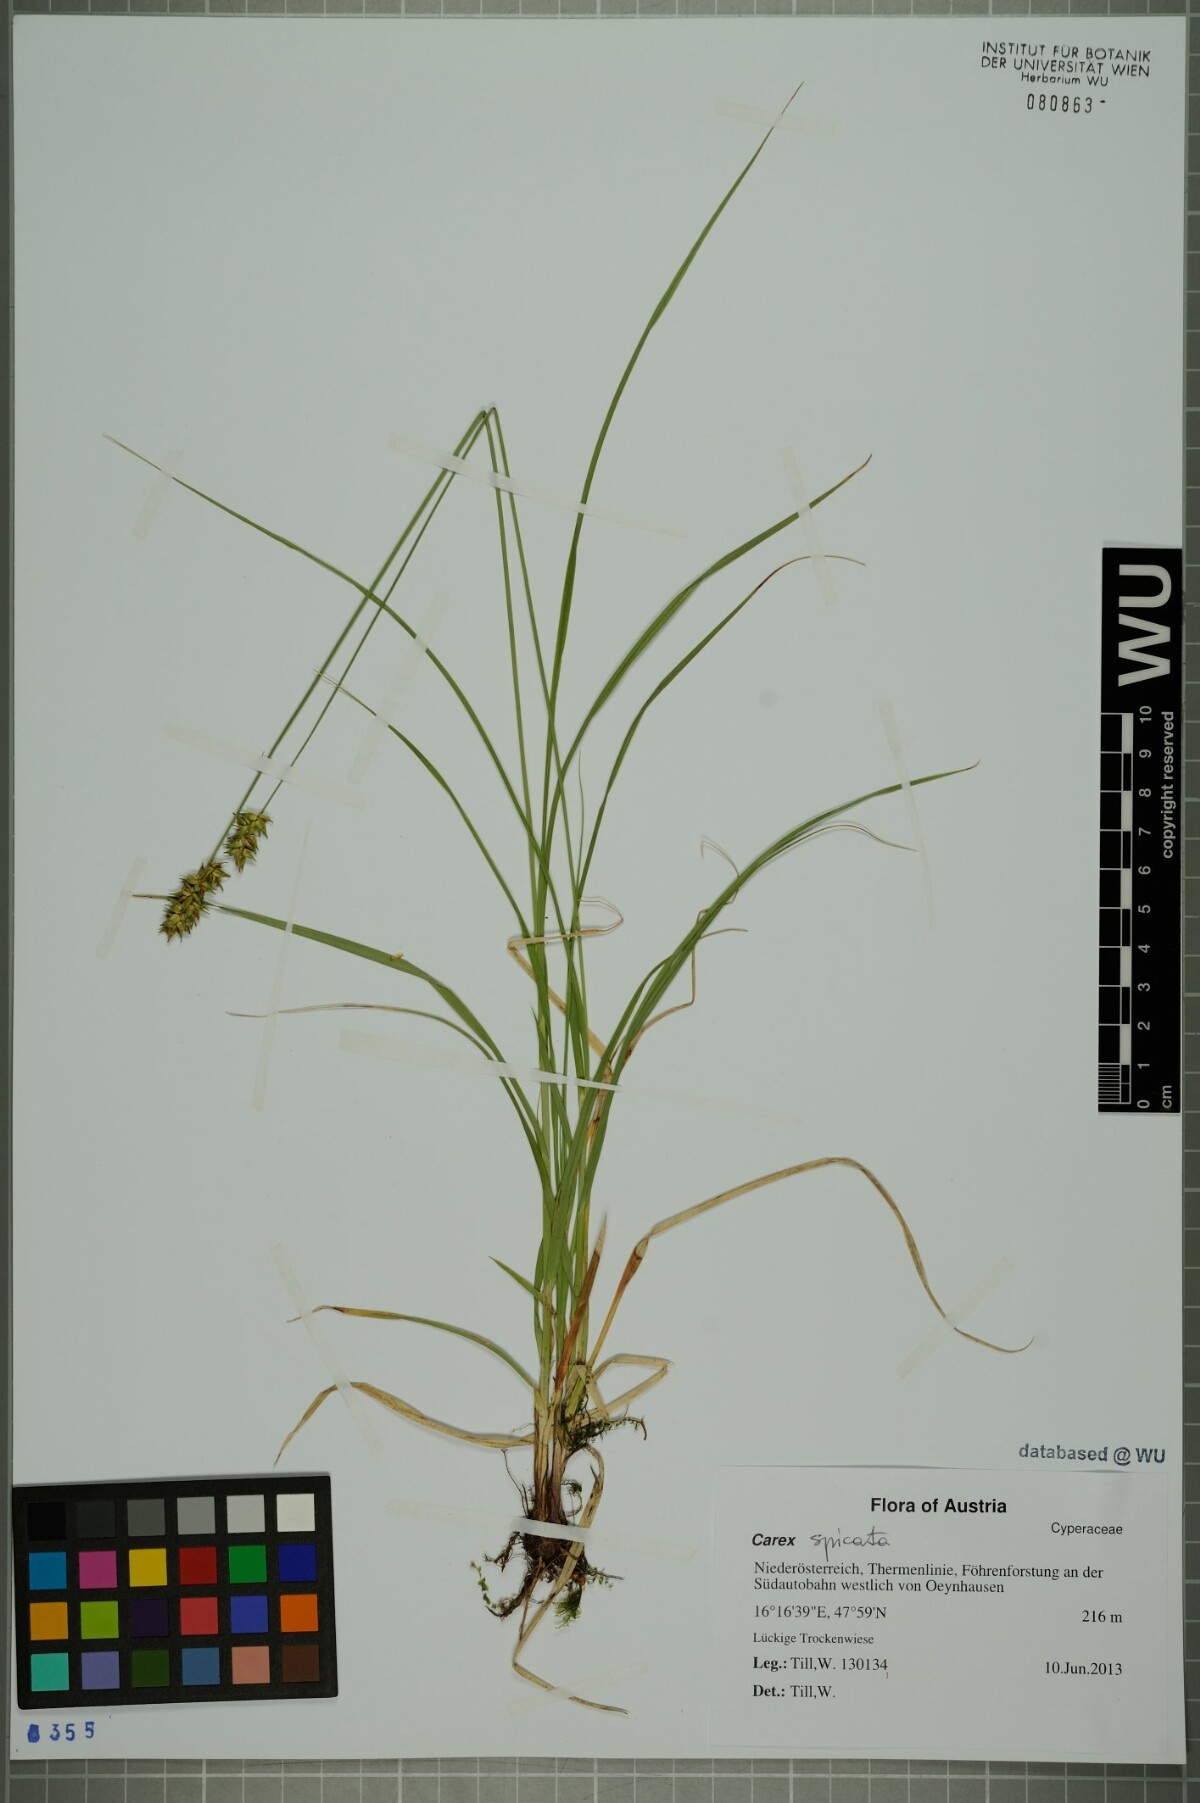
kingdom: Plantae
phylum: Tracheophyta
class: Liliopsida
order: Poales
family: Cyperaceae
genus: Carex
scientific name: Carex spicata
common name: Spiked sedge
